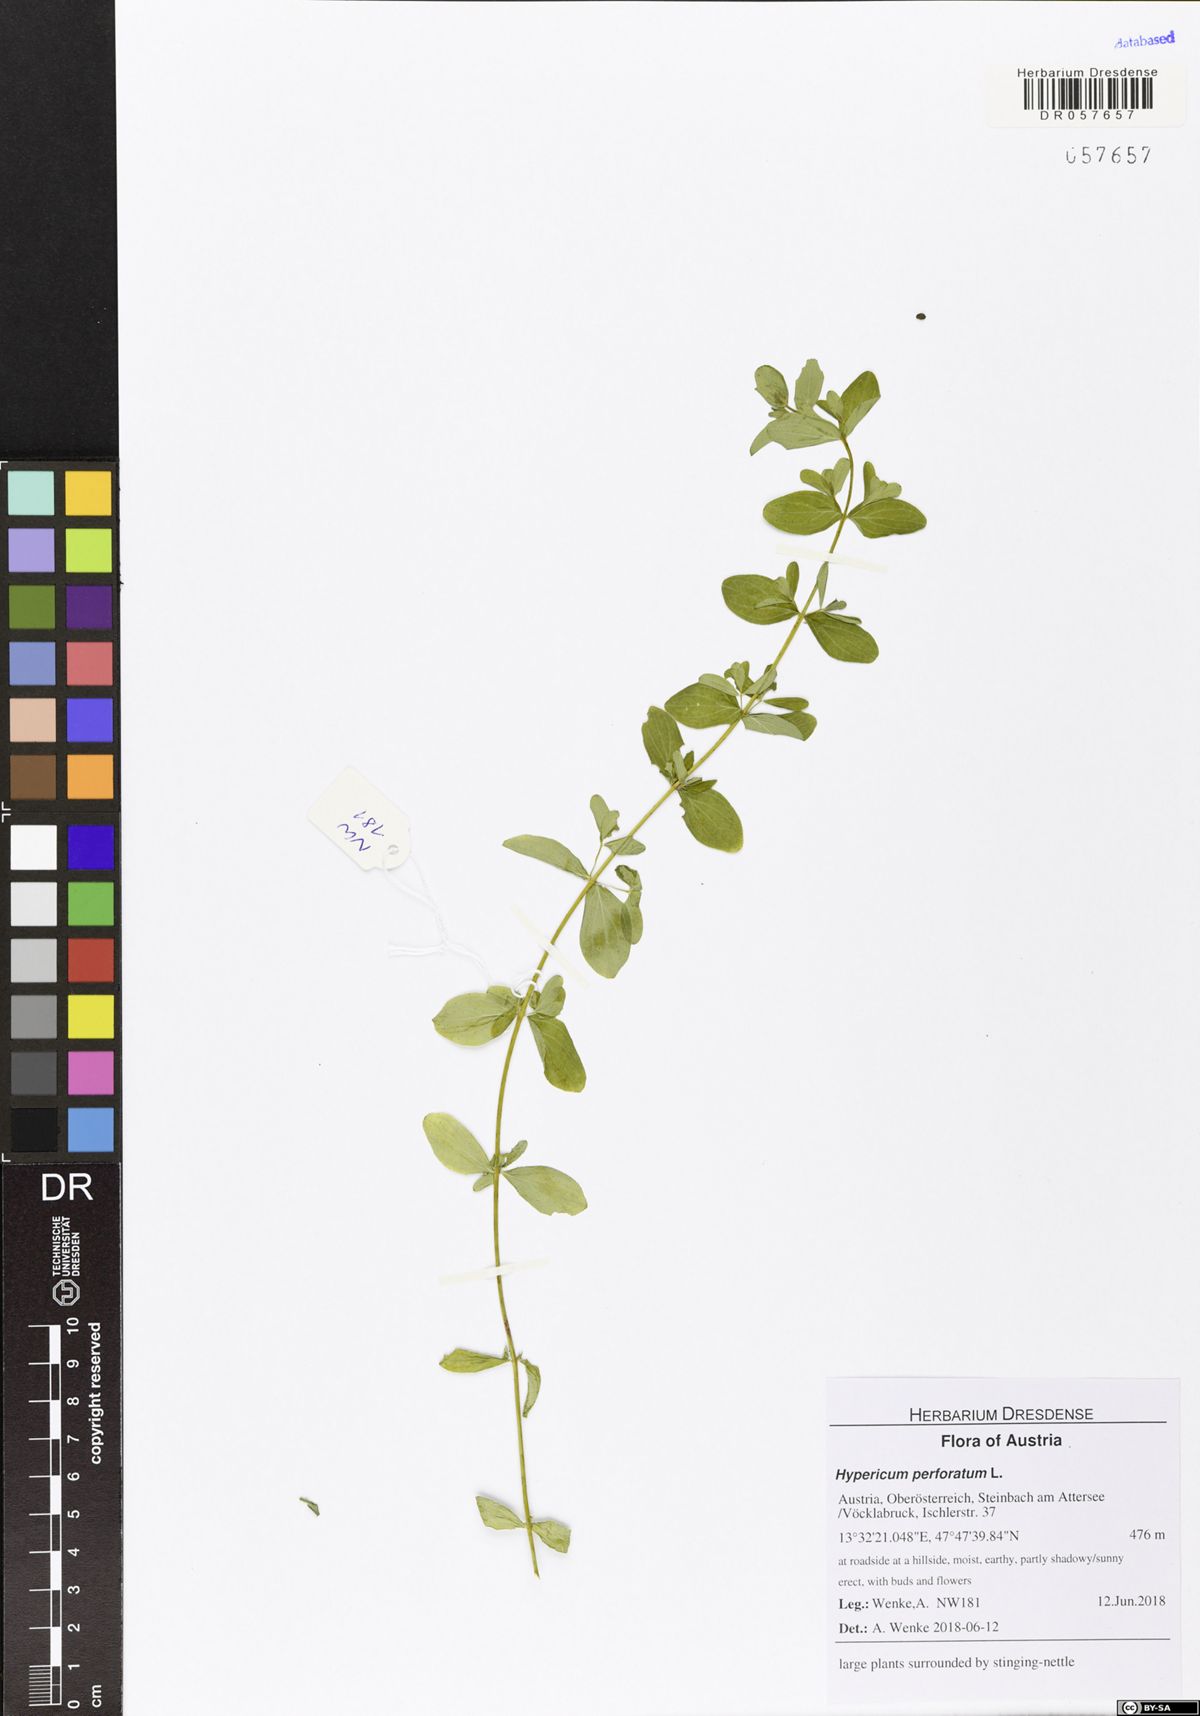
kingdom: Plantae
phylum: Tracheophyta
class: Magnoliopsida
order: Malpighiales
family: Hypericaceae
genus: Hypericum
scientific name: Hypericum perforatum
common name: Common st. johnswort
